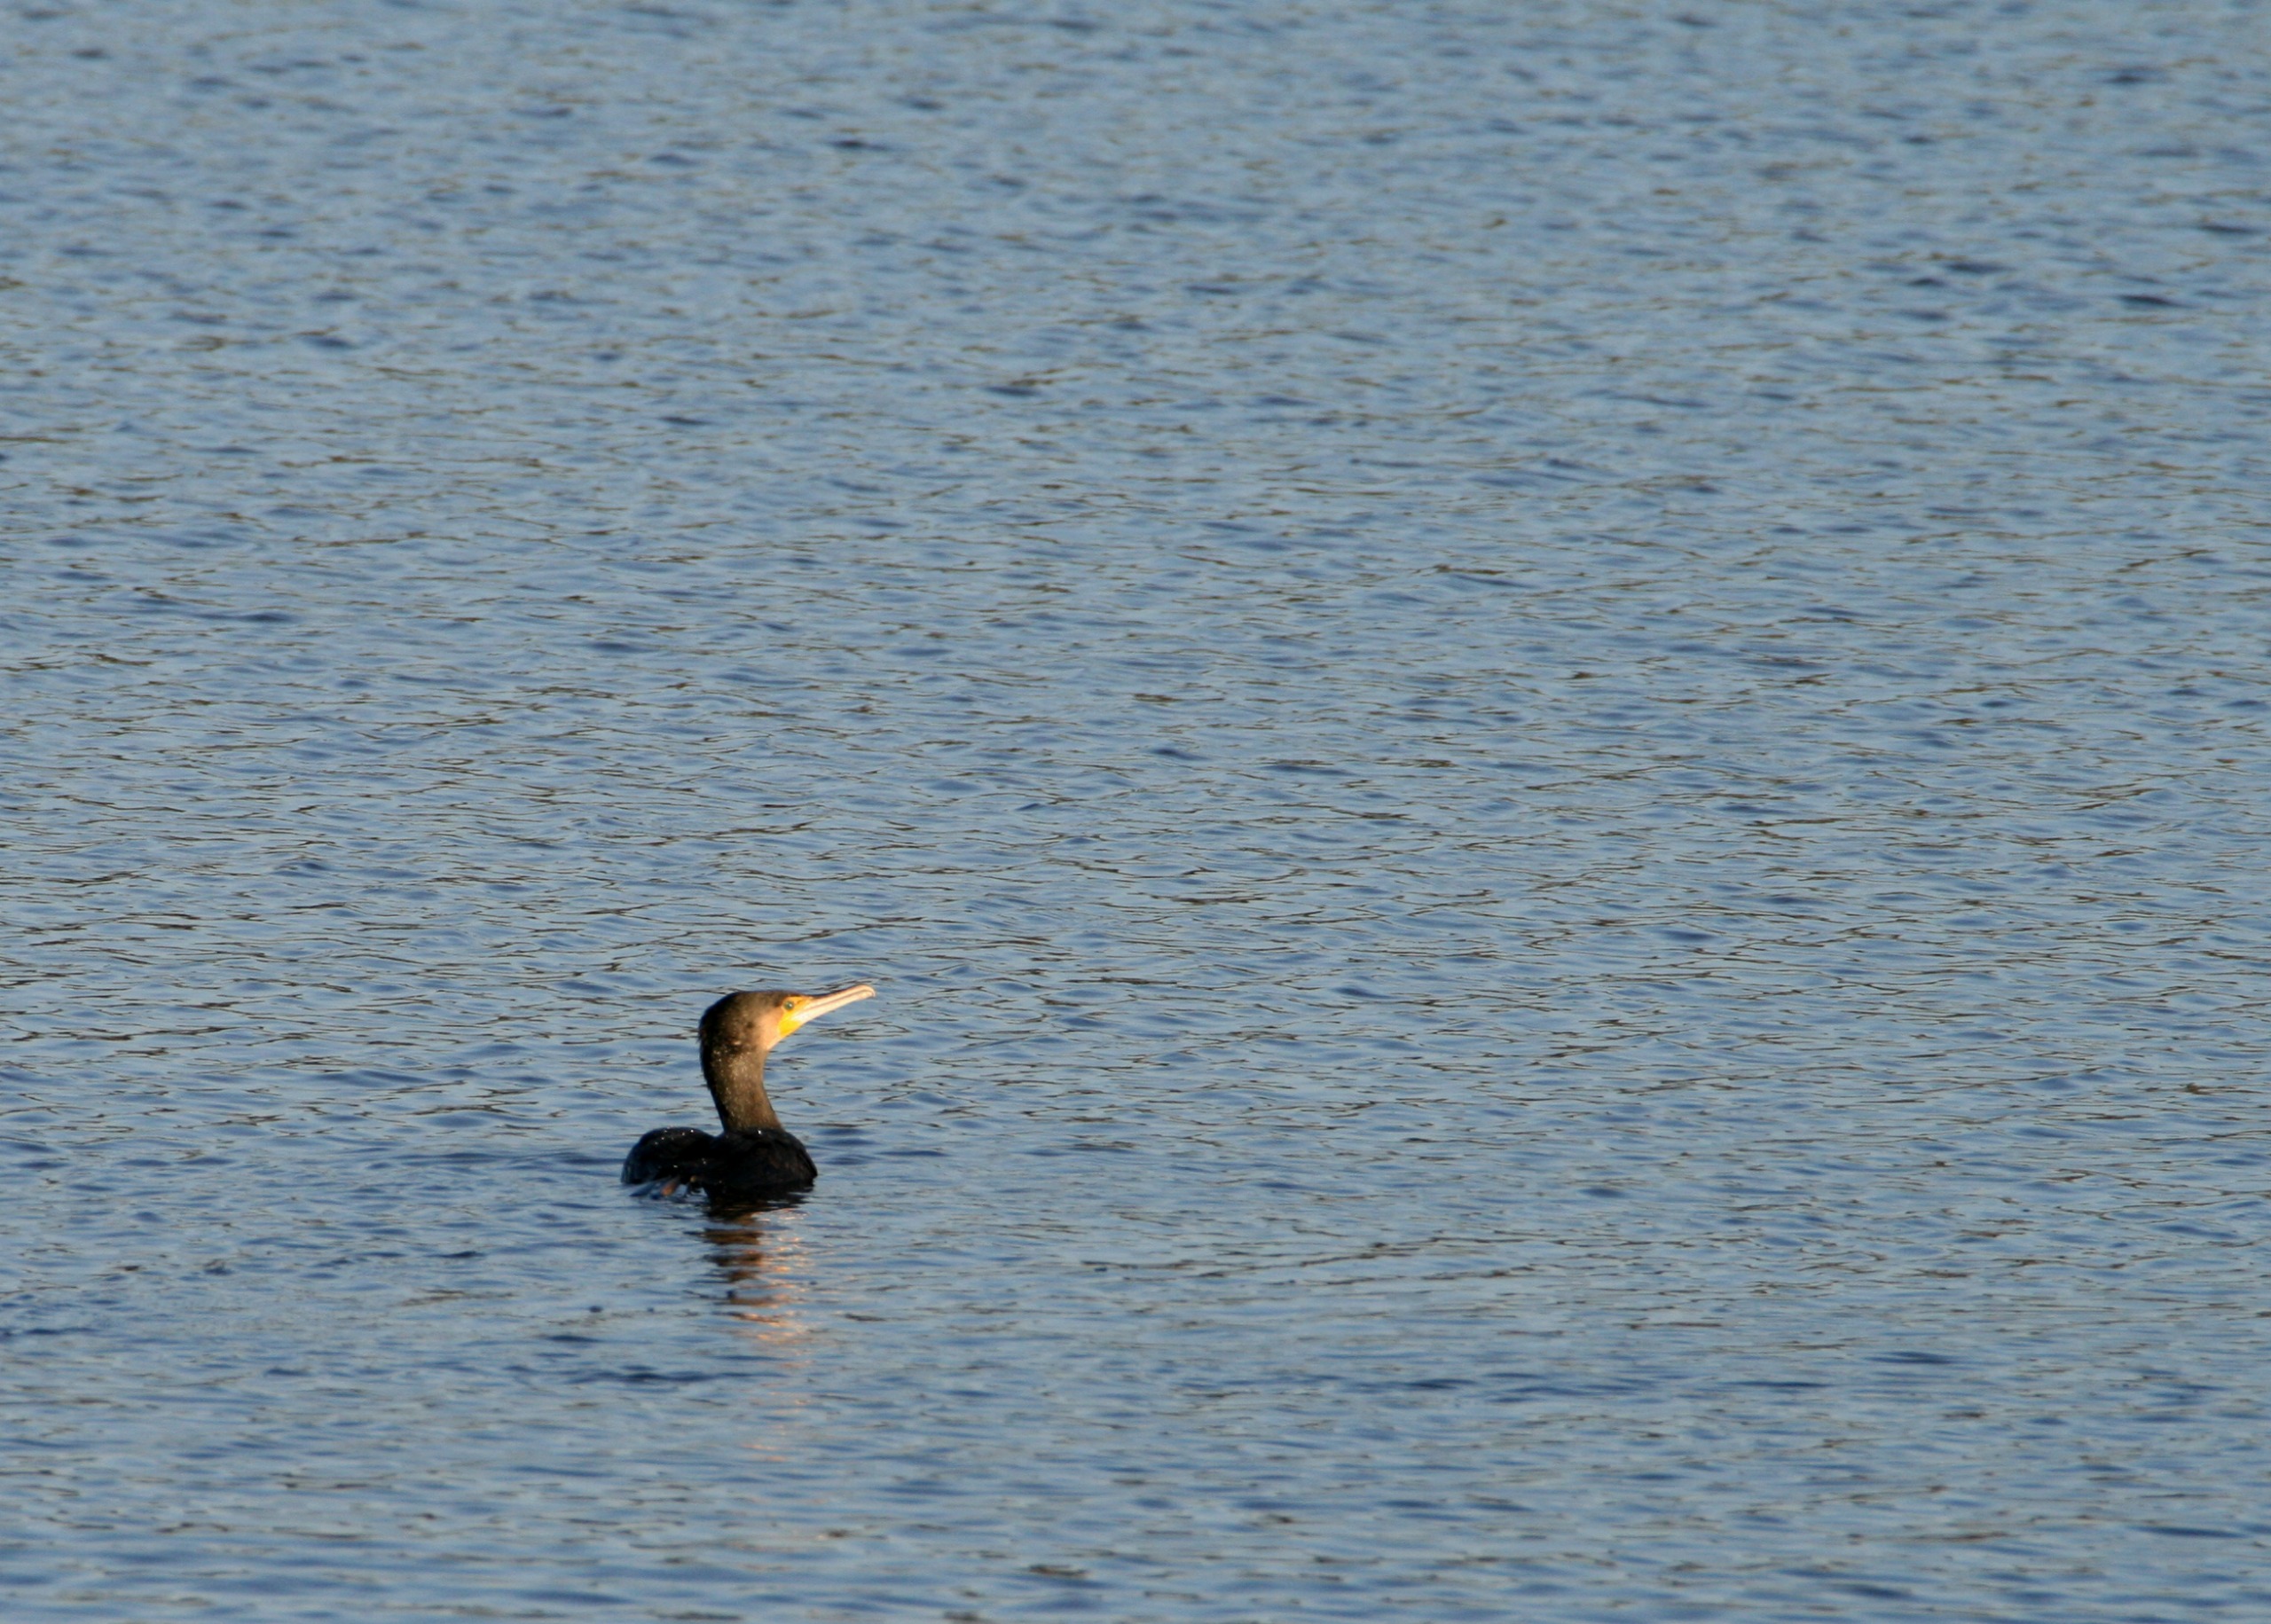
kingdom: Animalia
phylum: Chordata
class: Aves
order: Suliformes
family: Phalacrocoracidae
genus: Phalacrocorax
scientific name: Phalacrocorax carbo
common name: Skarv
